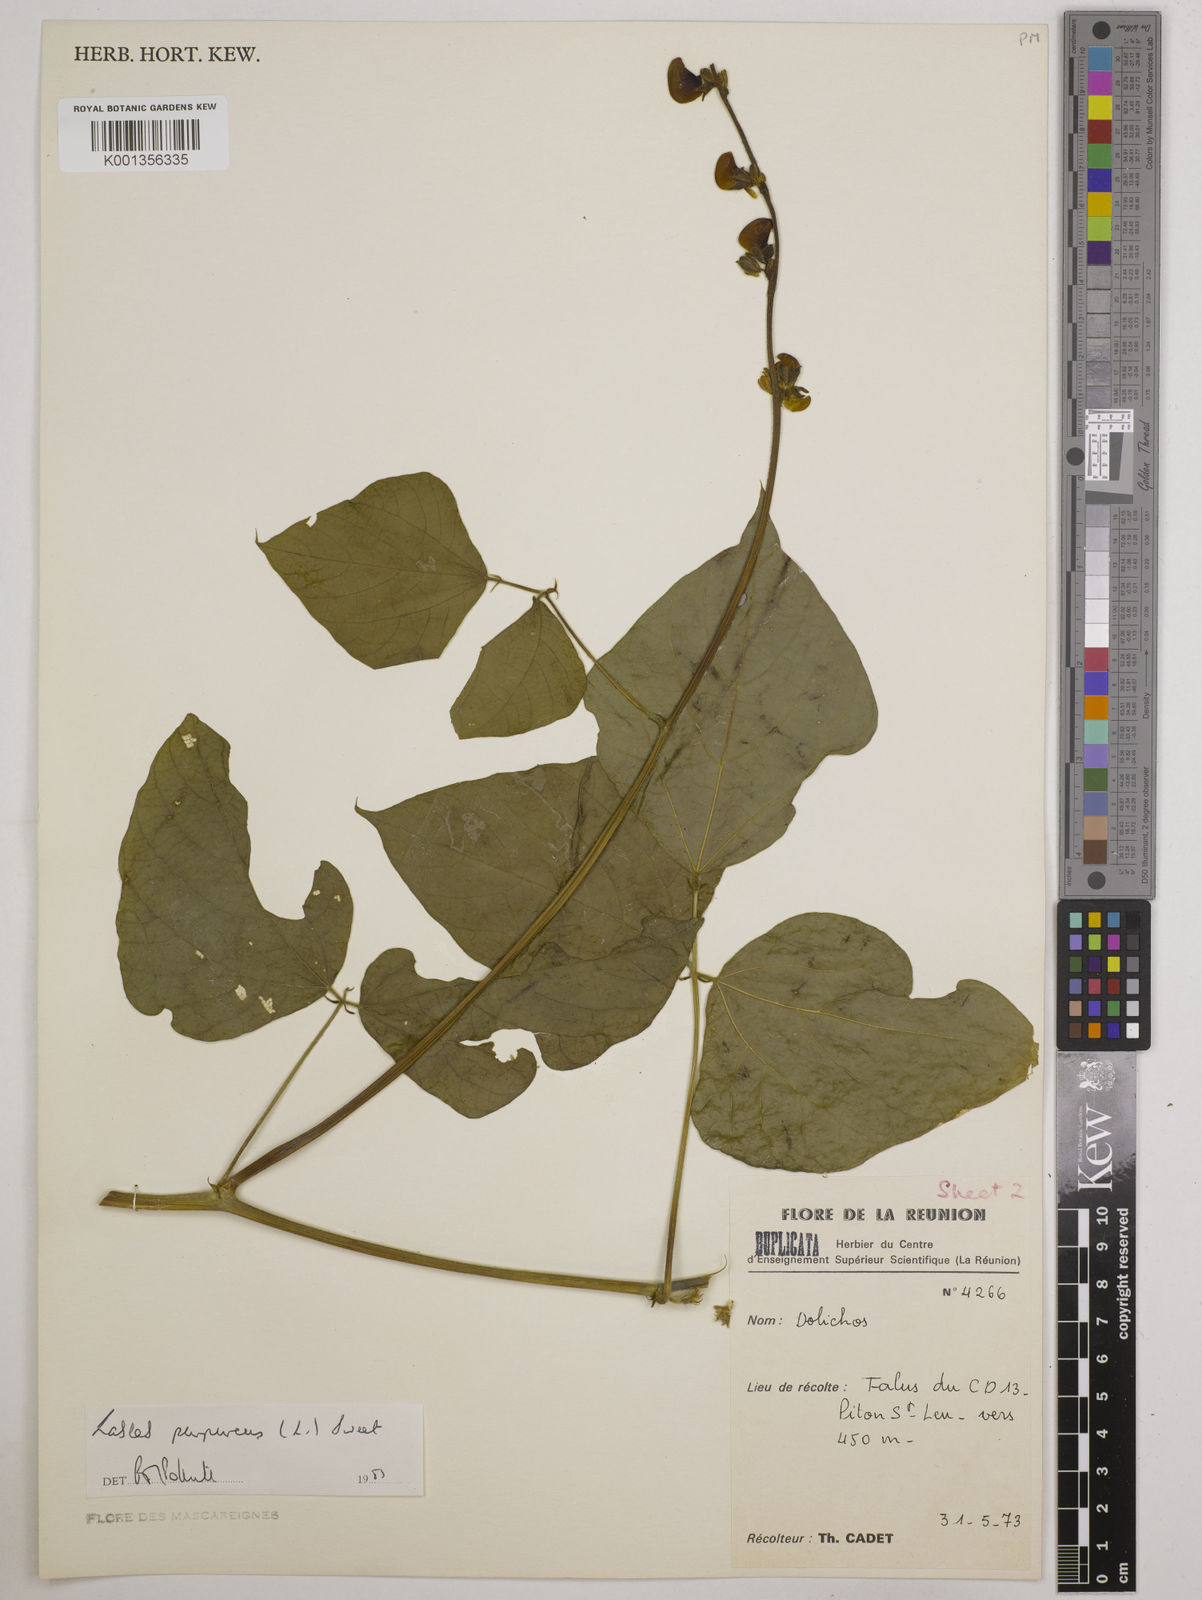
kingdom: Plantae
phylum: Tracheophyta
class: Magnoliopsida
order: Fabales
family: Fabaceae
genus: Lablab
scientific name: Lablab purpureus
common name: Lablab-bean
